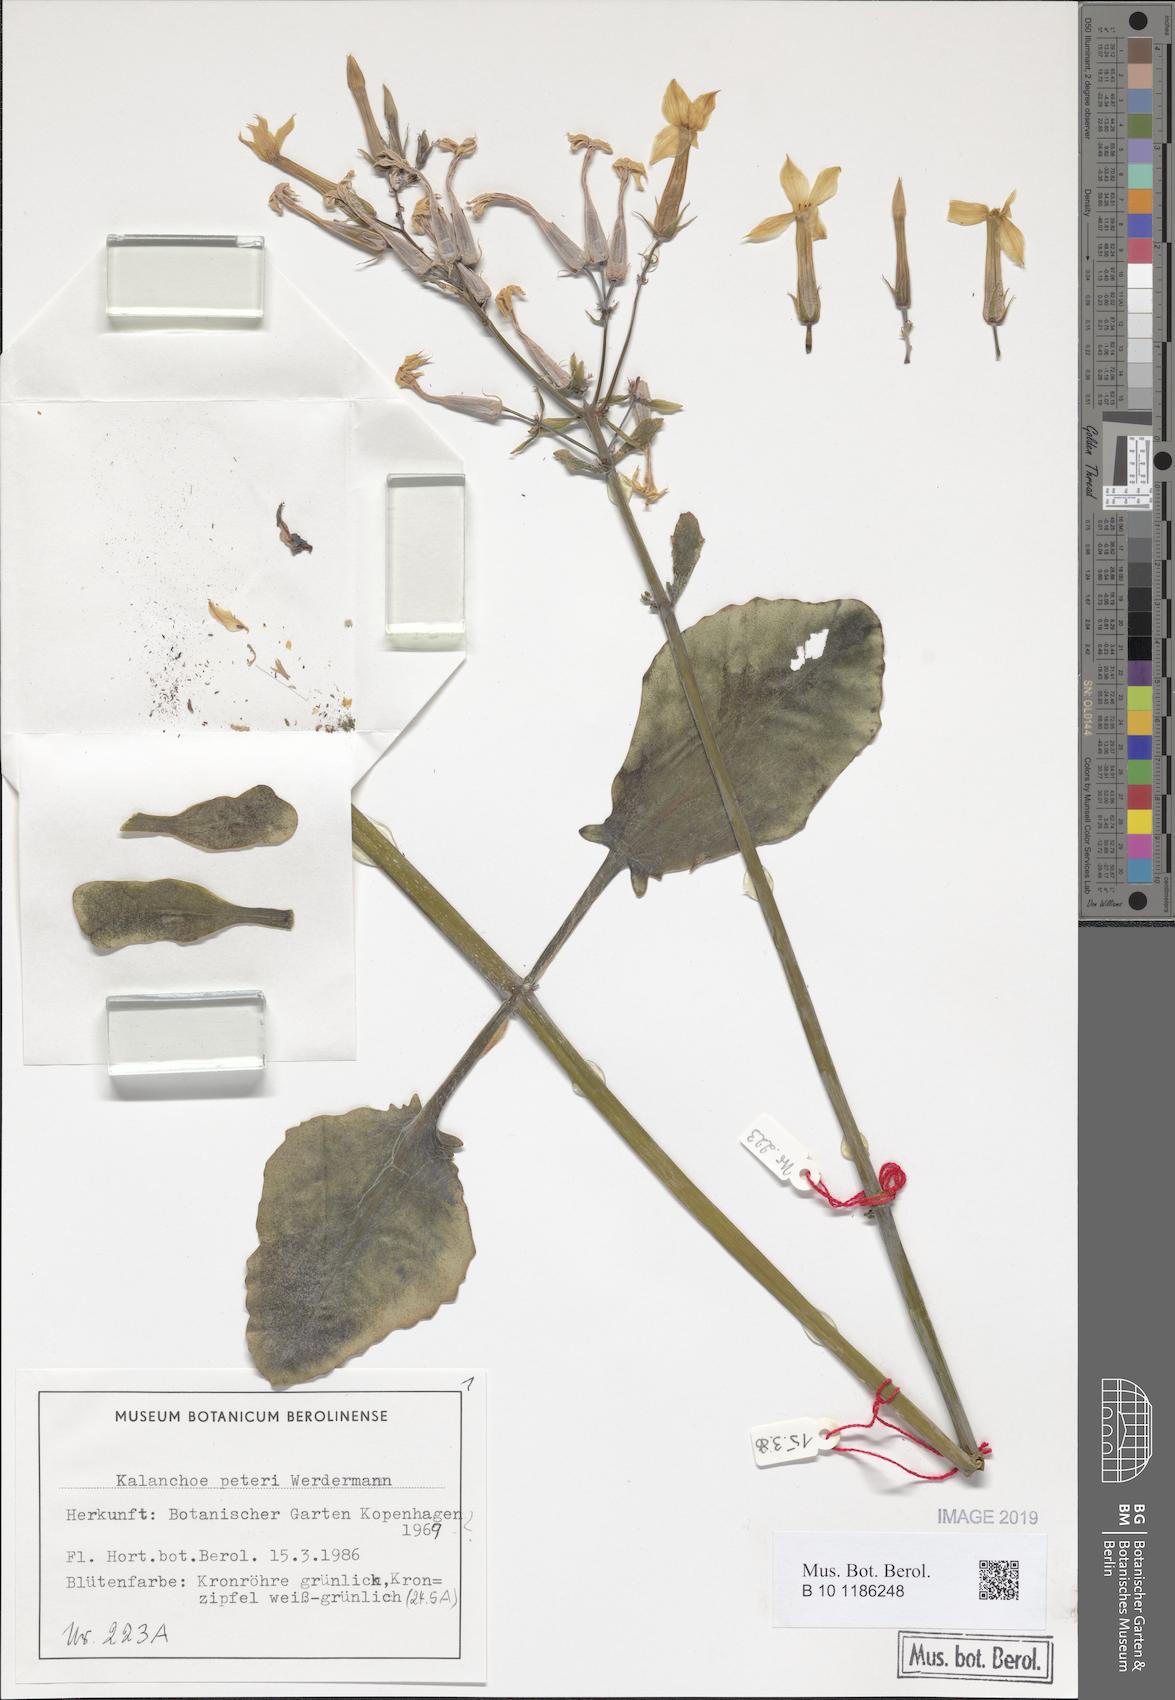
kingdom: Plantae
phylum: Tracheophyta
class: Magnoliopsida
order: Saxifragales
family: Crassulaceae
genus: Kalanchoe
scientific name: Kalanchoe peteri
